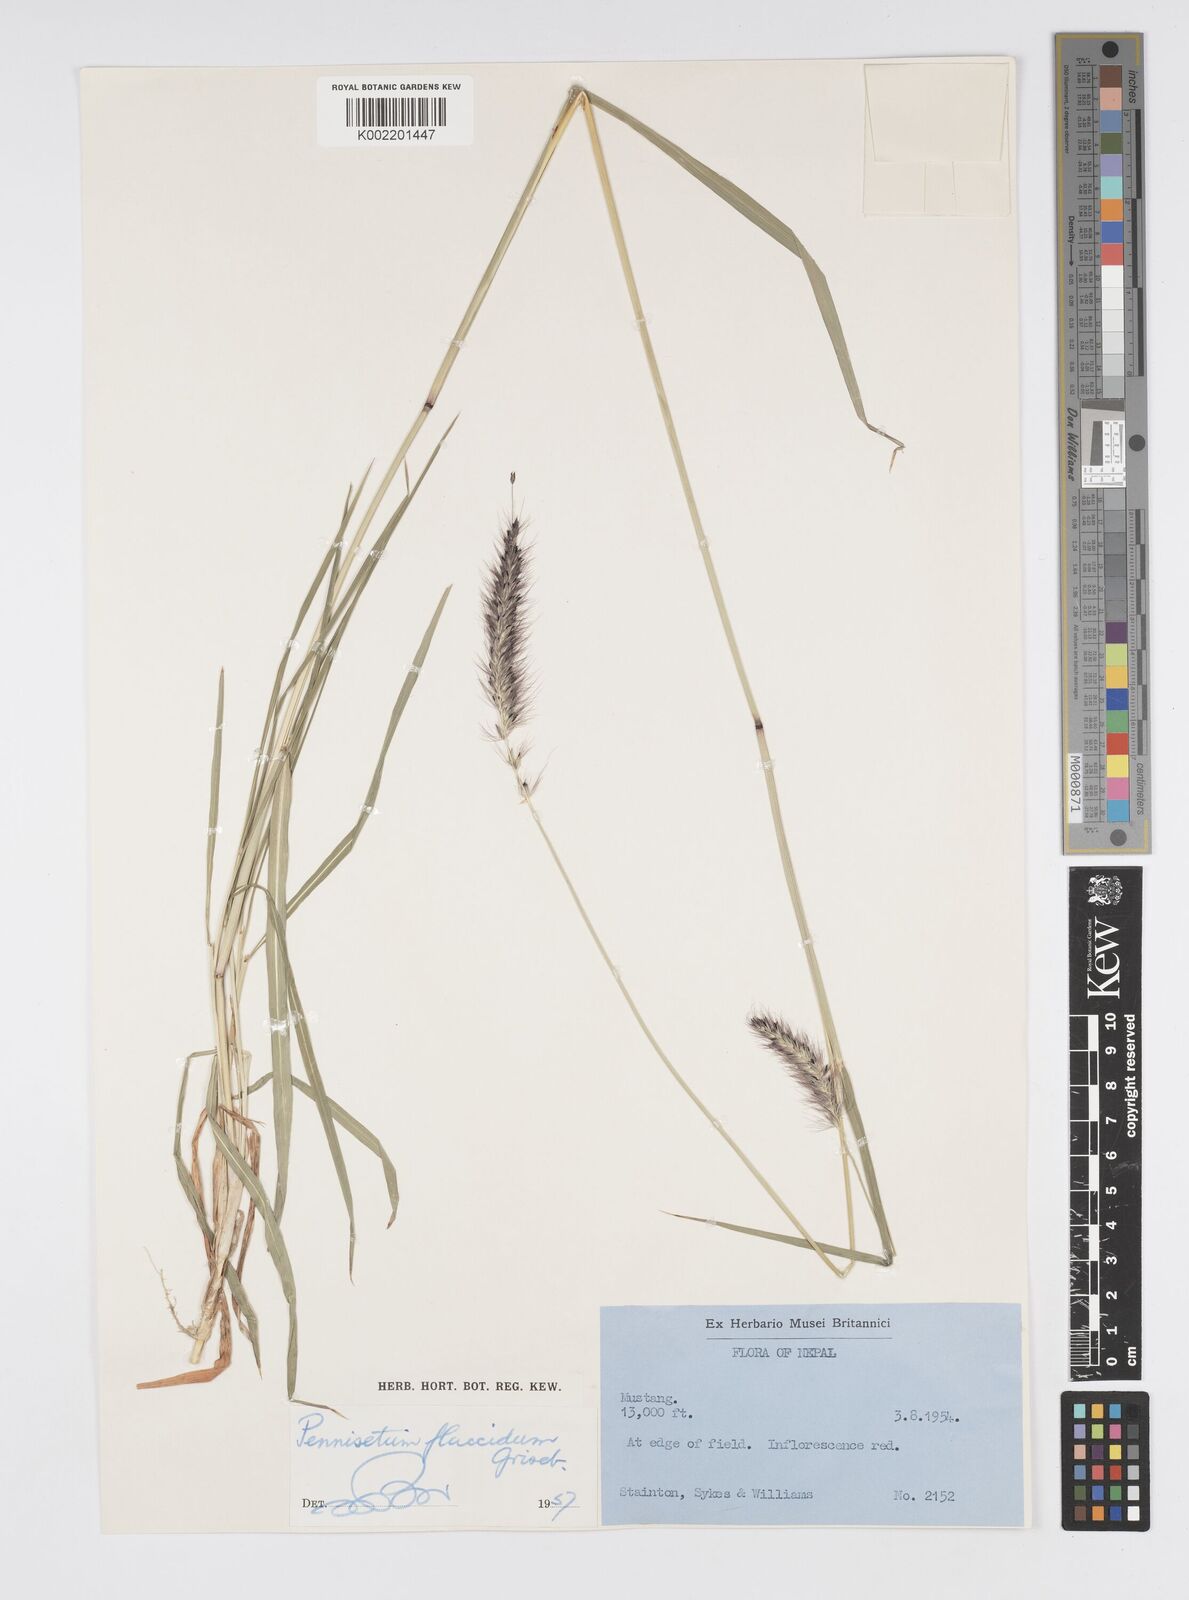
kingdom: Plantae
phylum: Tracheophyta
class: Liliopsida
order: Poales
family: Poaceae
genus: Cenchrus
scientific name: Cenchrus flaccidus
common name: Flaccid grass
